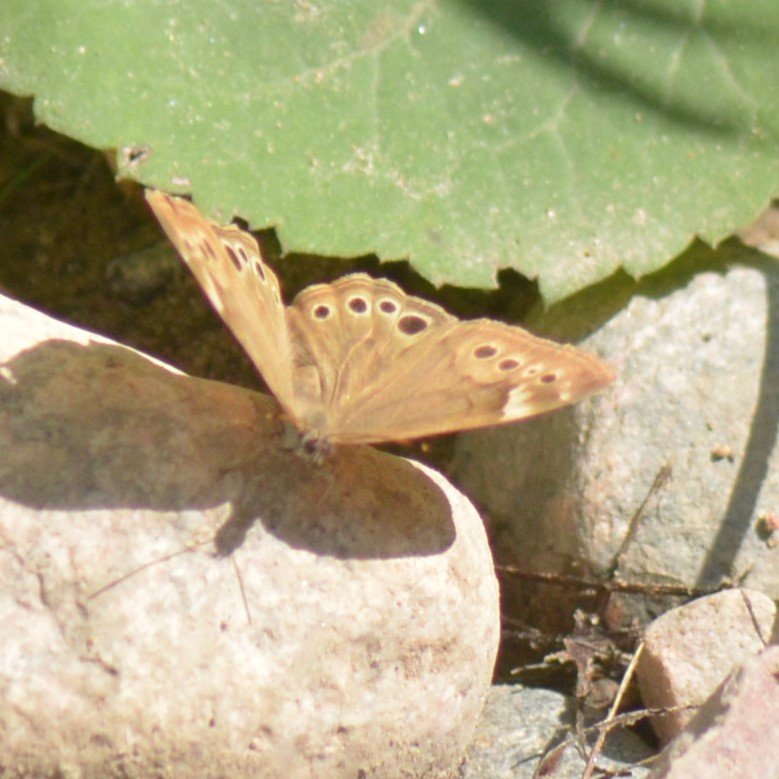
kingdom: Animalia
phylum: Arthropoda
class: Insecta
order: Lepidoptera
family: Nymphalidae
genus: Lethe
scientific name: Lethe anthedon
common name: Northern Pearly-Eye
